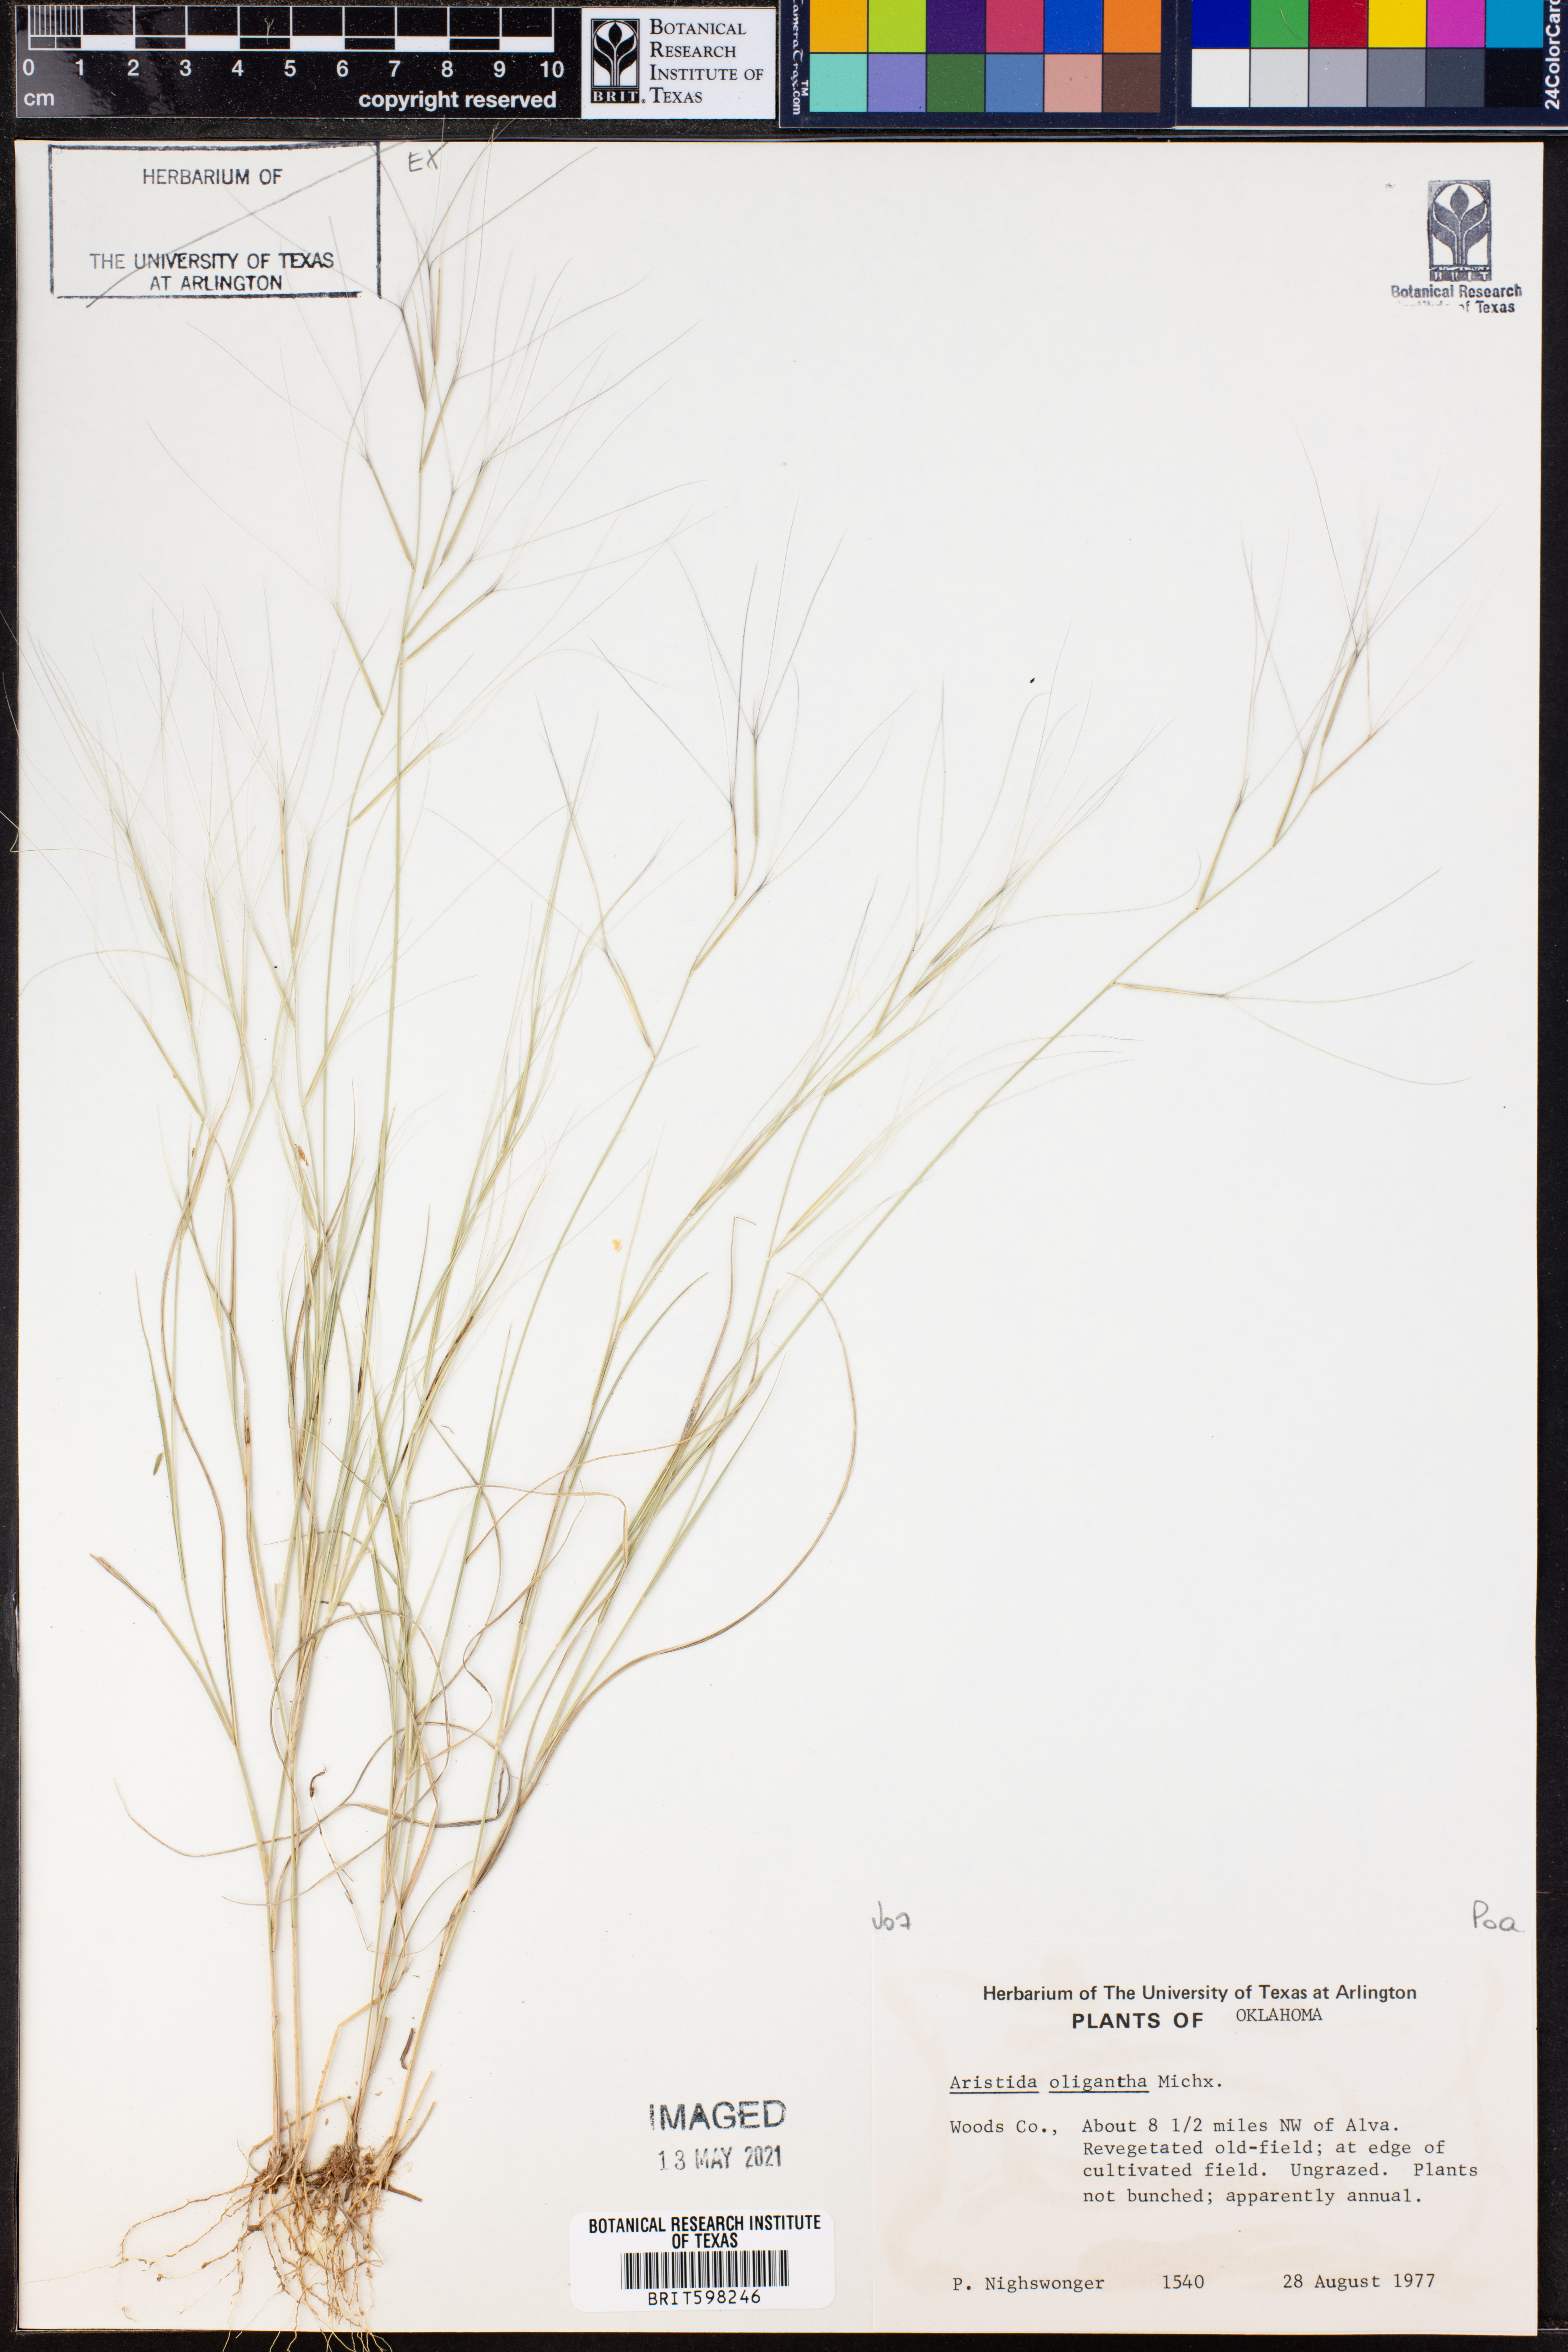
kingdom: Plantae
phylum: Tracheophyta
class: Liliopsida
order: Poales
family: Poaceae
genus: Aristida
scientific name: Aristida oligantha
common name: Few-flowered aristida
